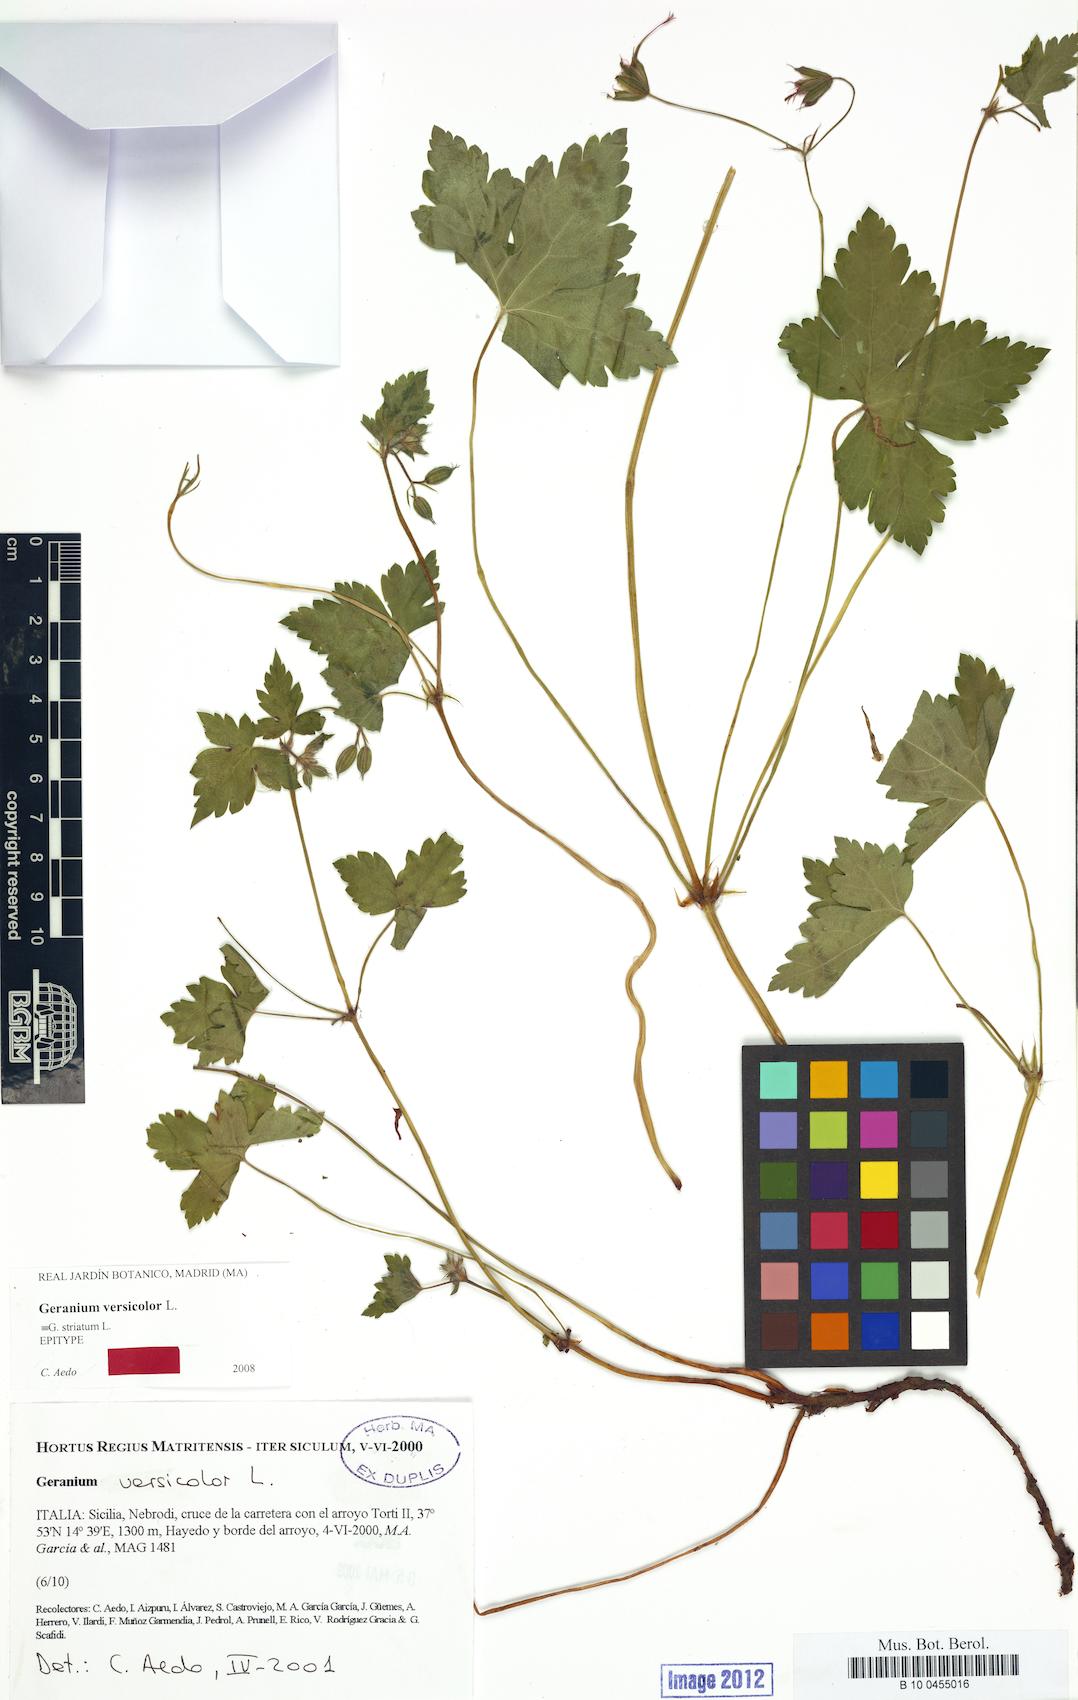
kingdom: Plantae
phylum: Tracheophyta
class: Magnoliopsida
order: Geraniales
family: Geraniaceae
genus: Geranium
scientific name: Geranium versicolor
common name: Pencilled crane's-bill
